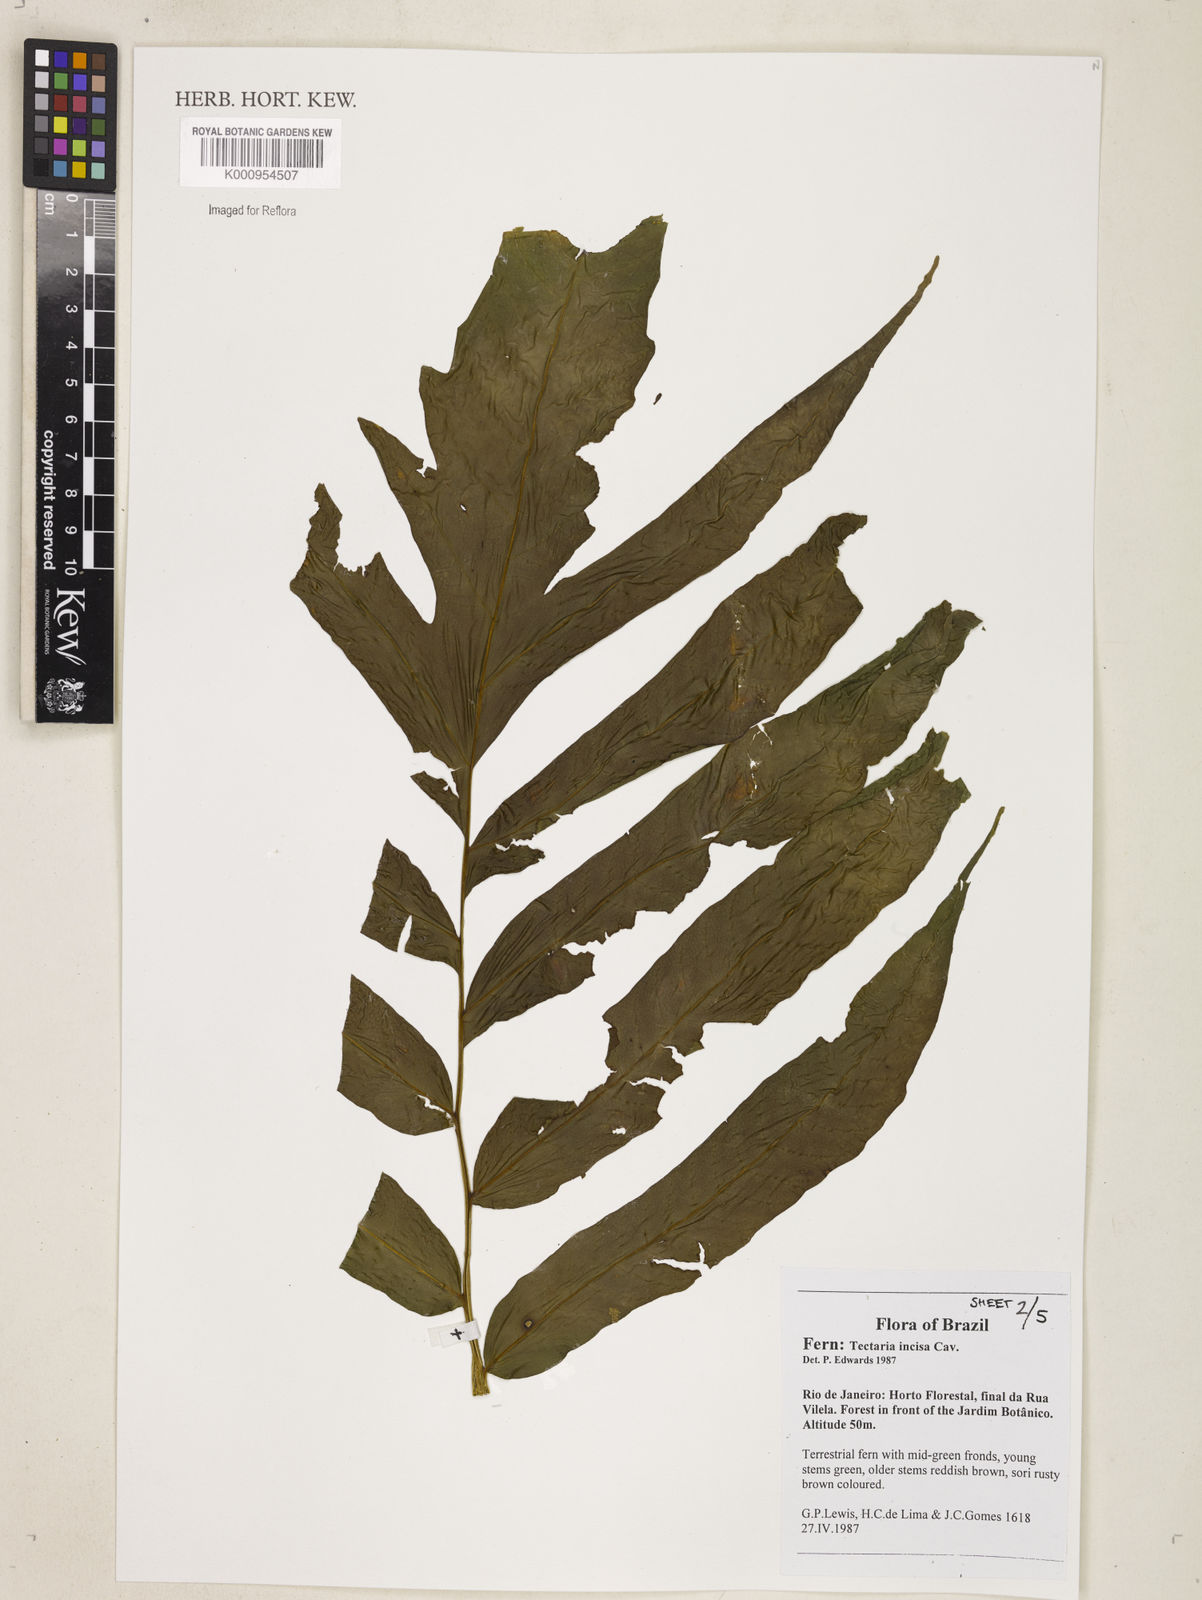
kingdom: Plantae
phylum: Tracheophyta
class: Polypodiopsida
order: Polypodiales
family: Tectariaceae
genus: Tectaria
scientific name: Tectaria incisa
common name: Incised halberd fern
